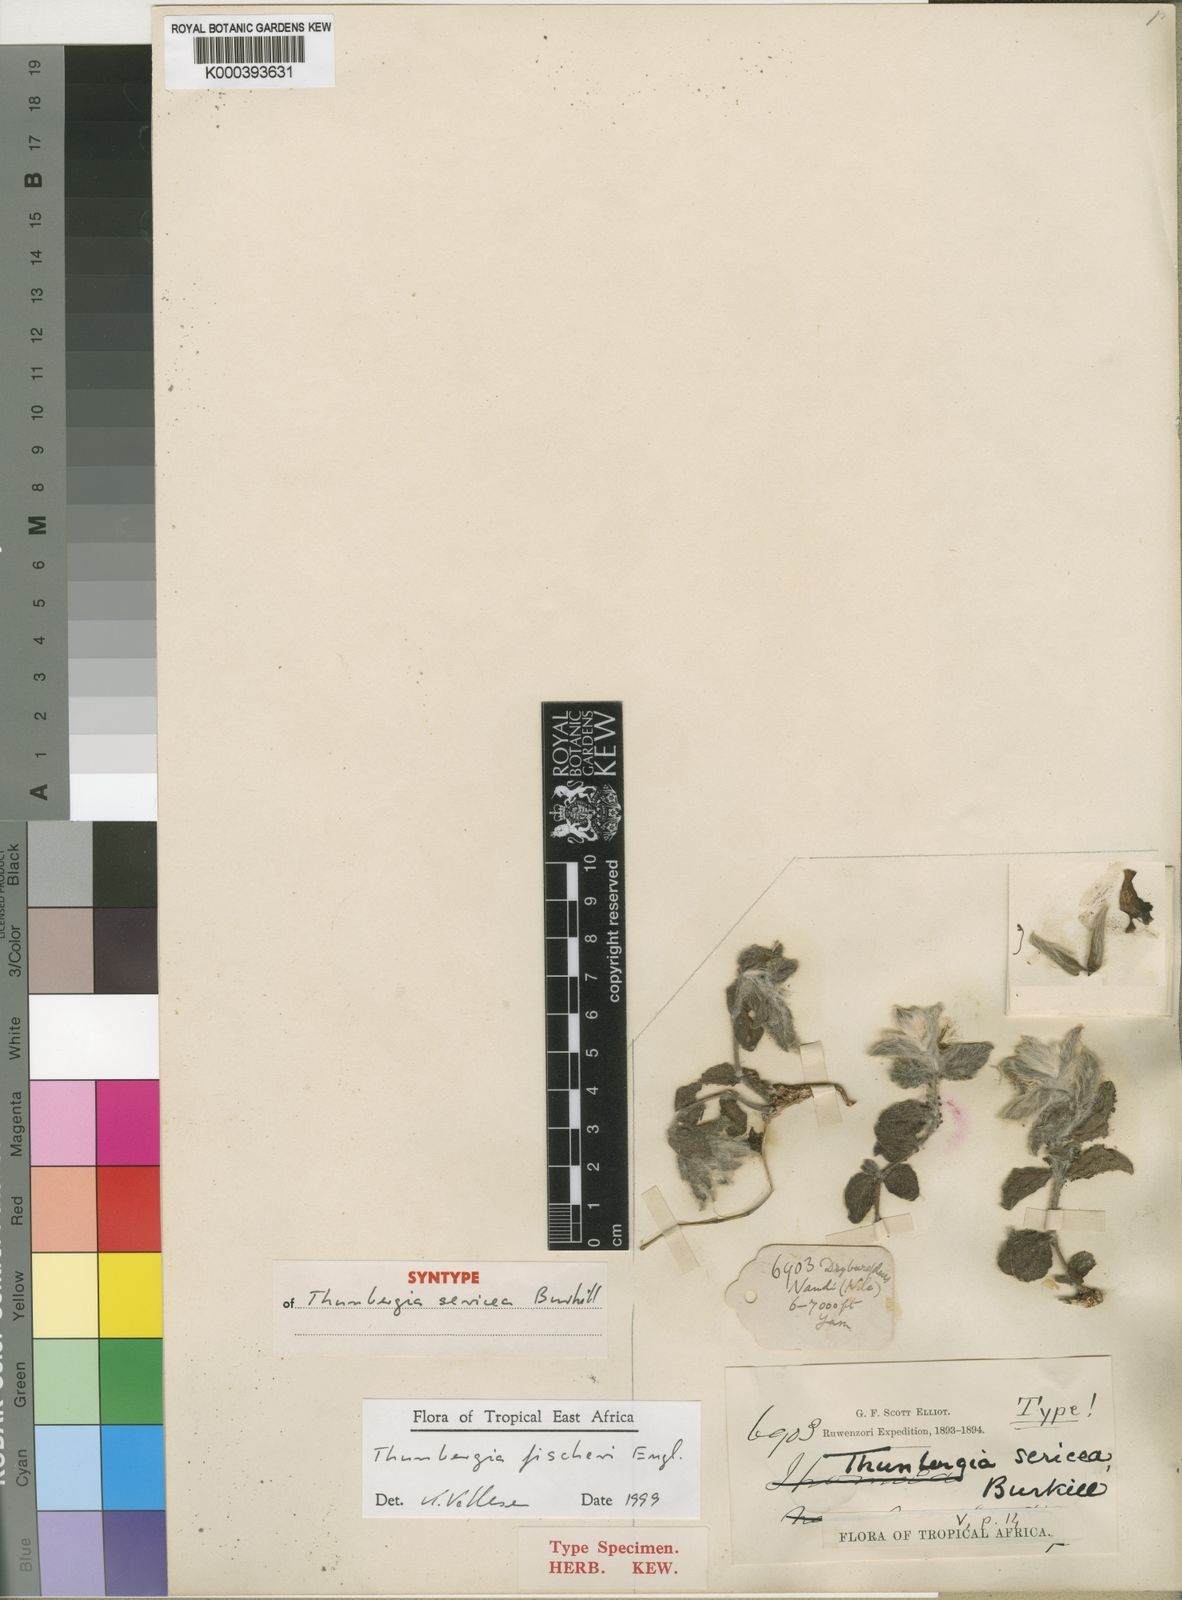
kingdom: Plantae
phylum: Tracheophyta
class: Magnoliopsida
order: Lamiales
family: Acanthaceae
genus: Thunbergia
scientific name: Thunbergia fischeri
